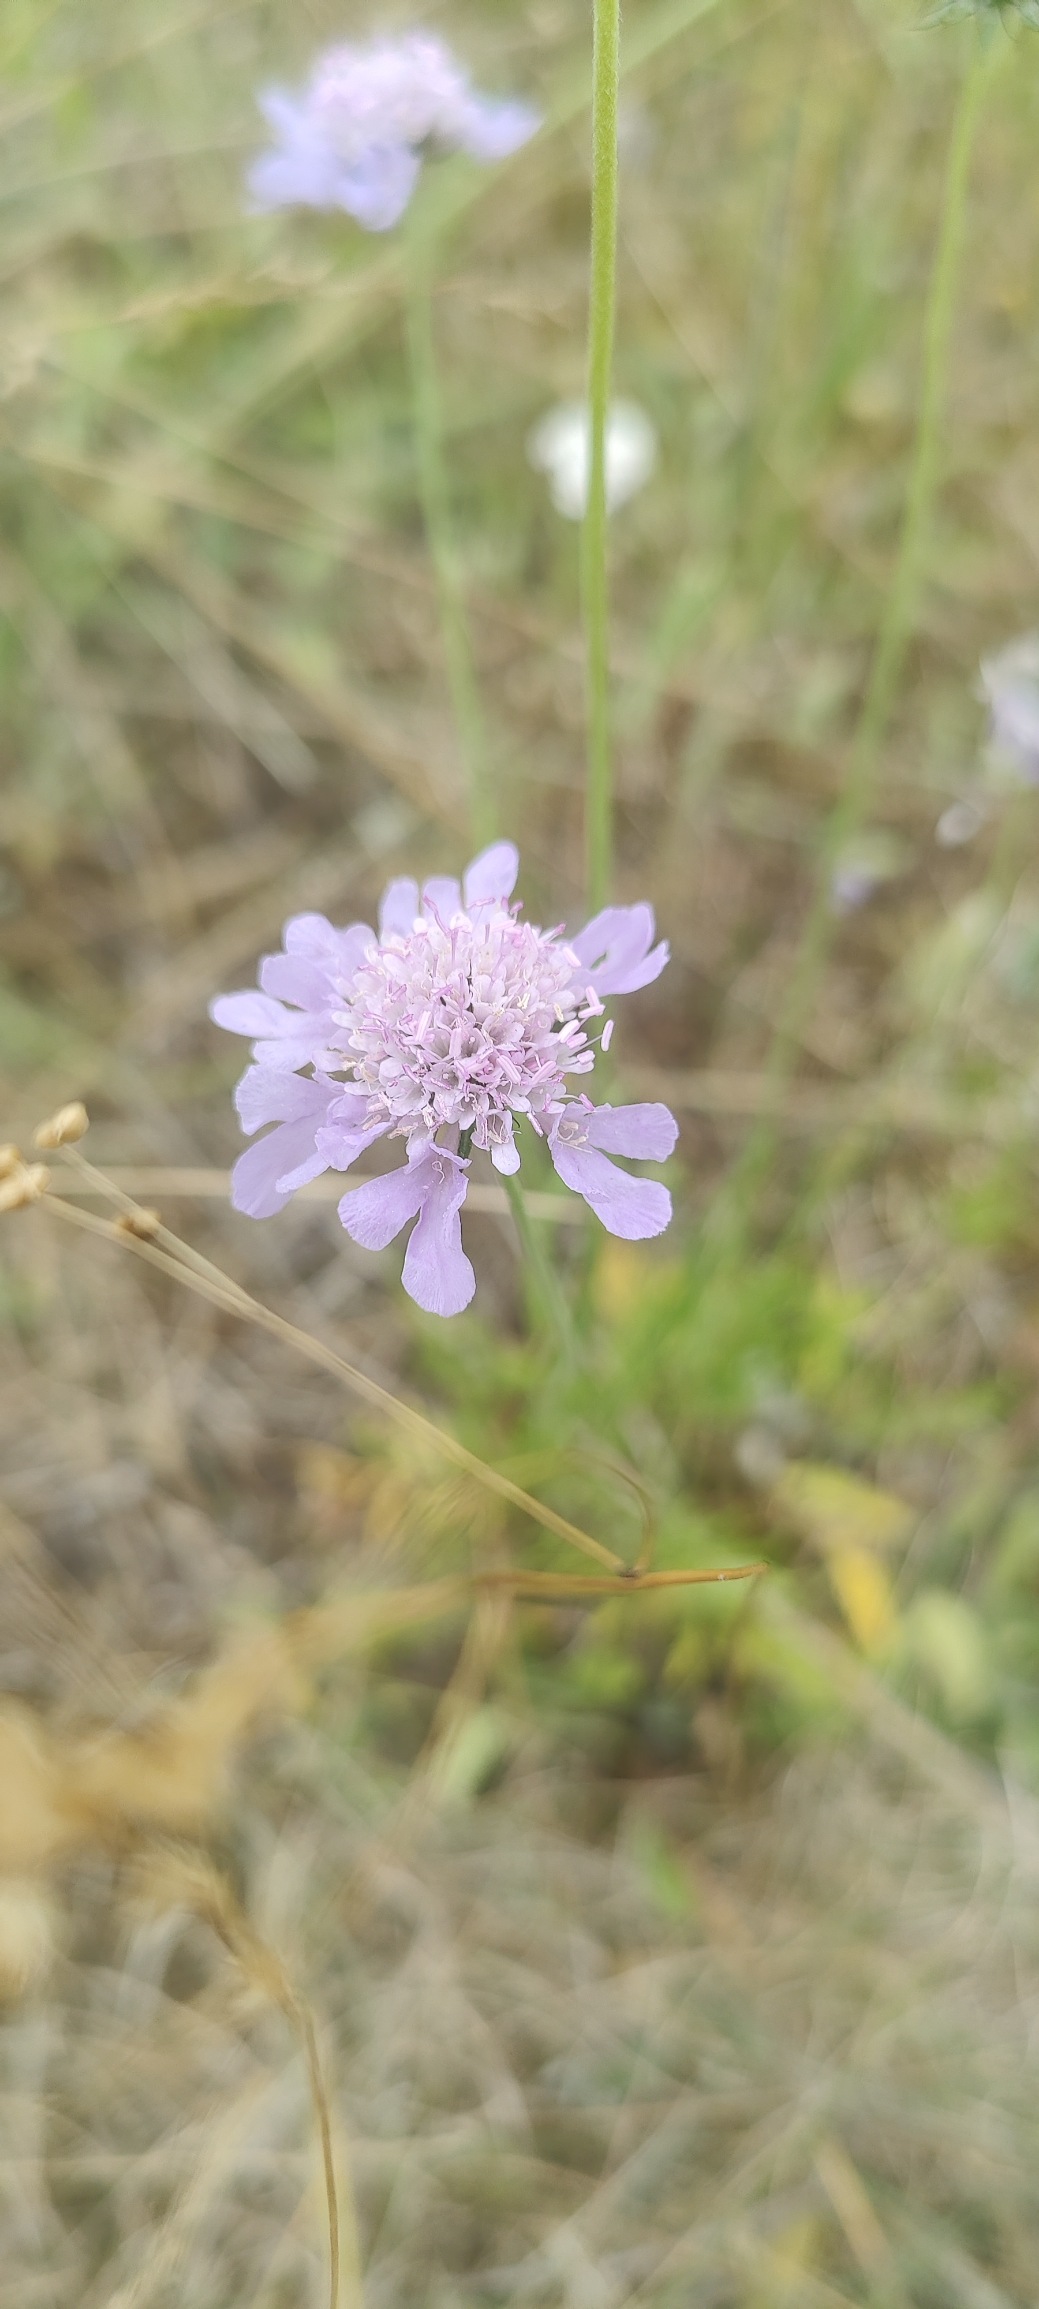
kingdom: Plantae
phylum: Tracheophyta
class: Magnoliopsida
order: Dipsacales
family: Caprifoliaceae
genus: Scabiosa
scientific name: Scabiosa columbaria
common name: Due-skabiose
